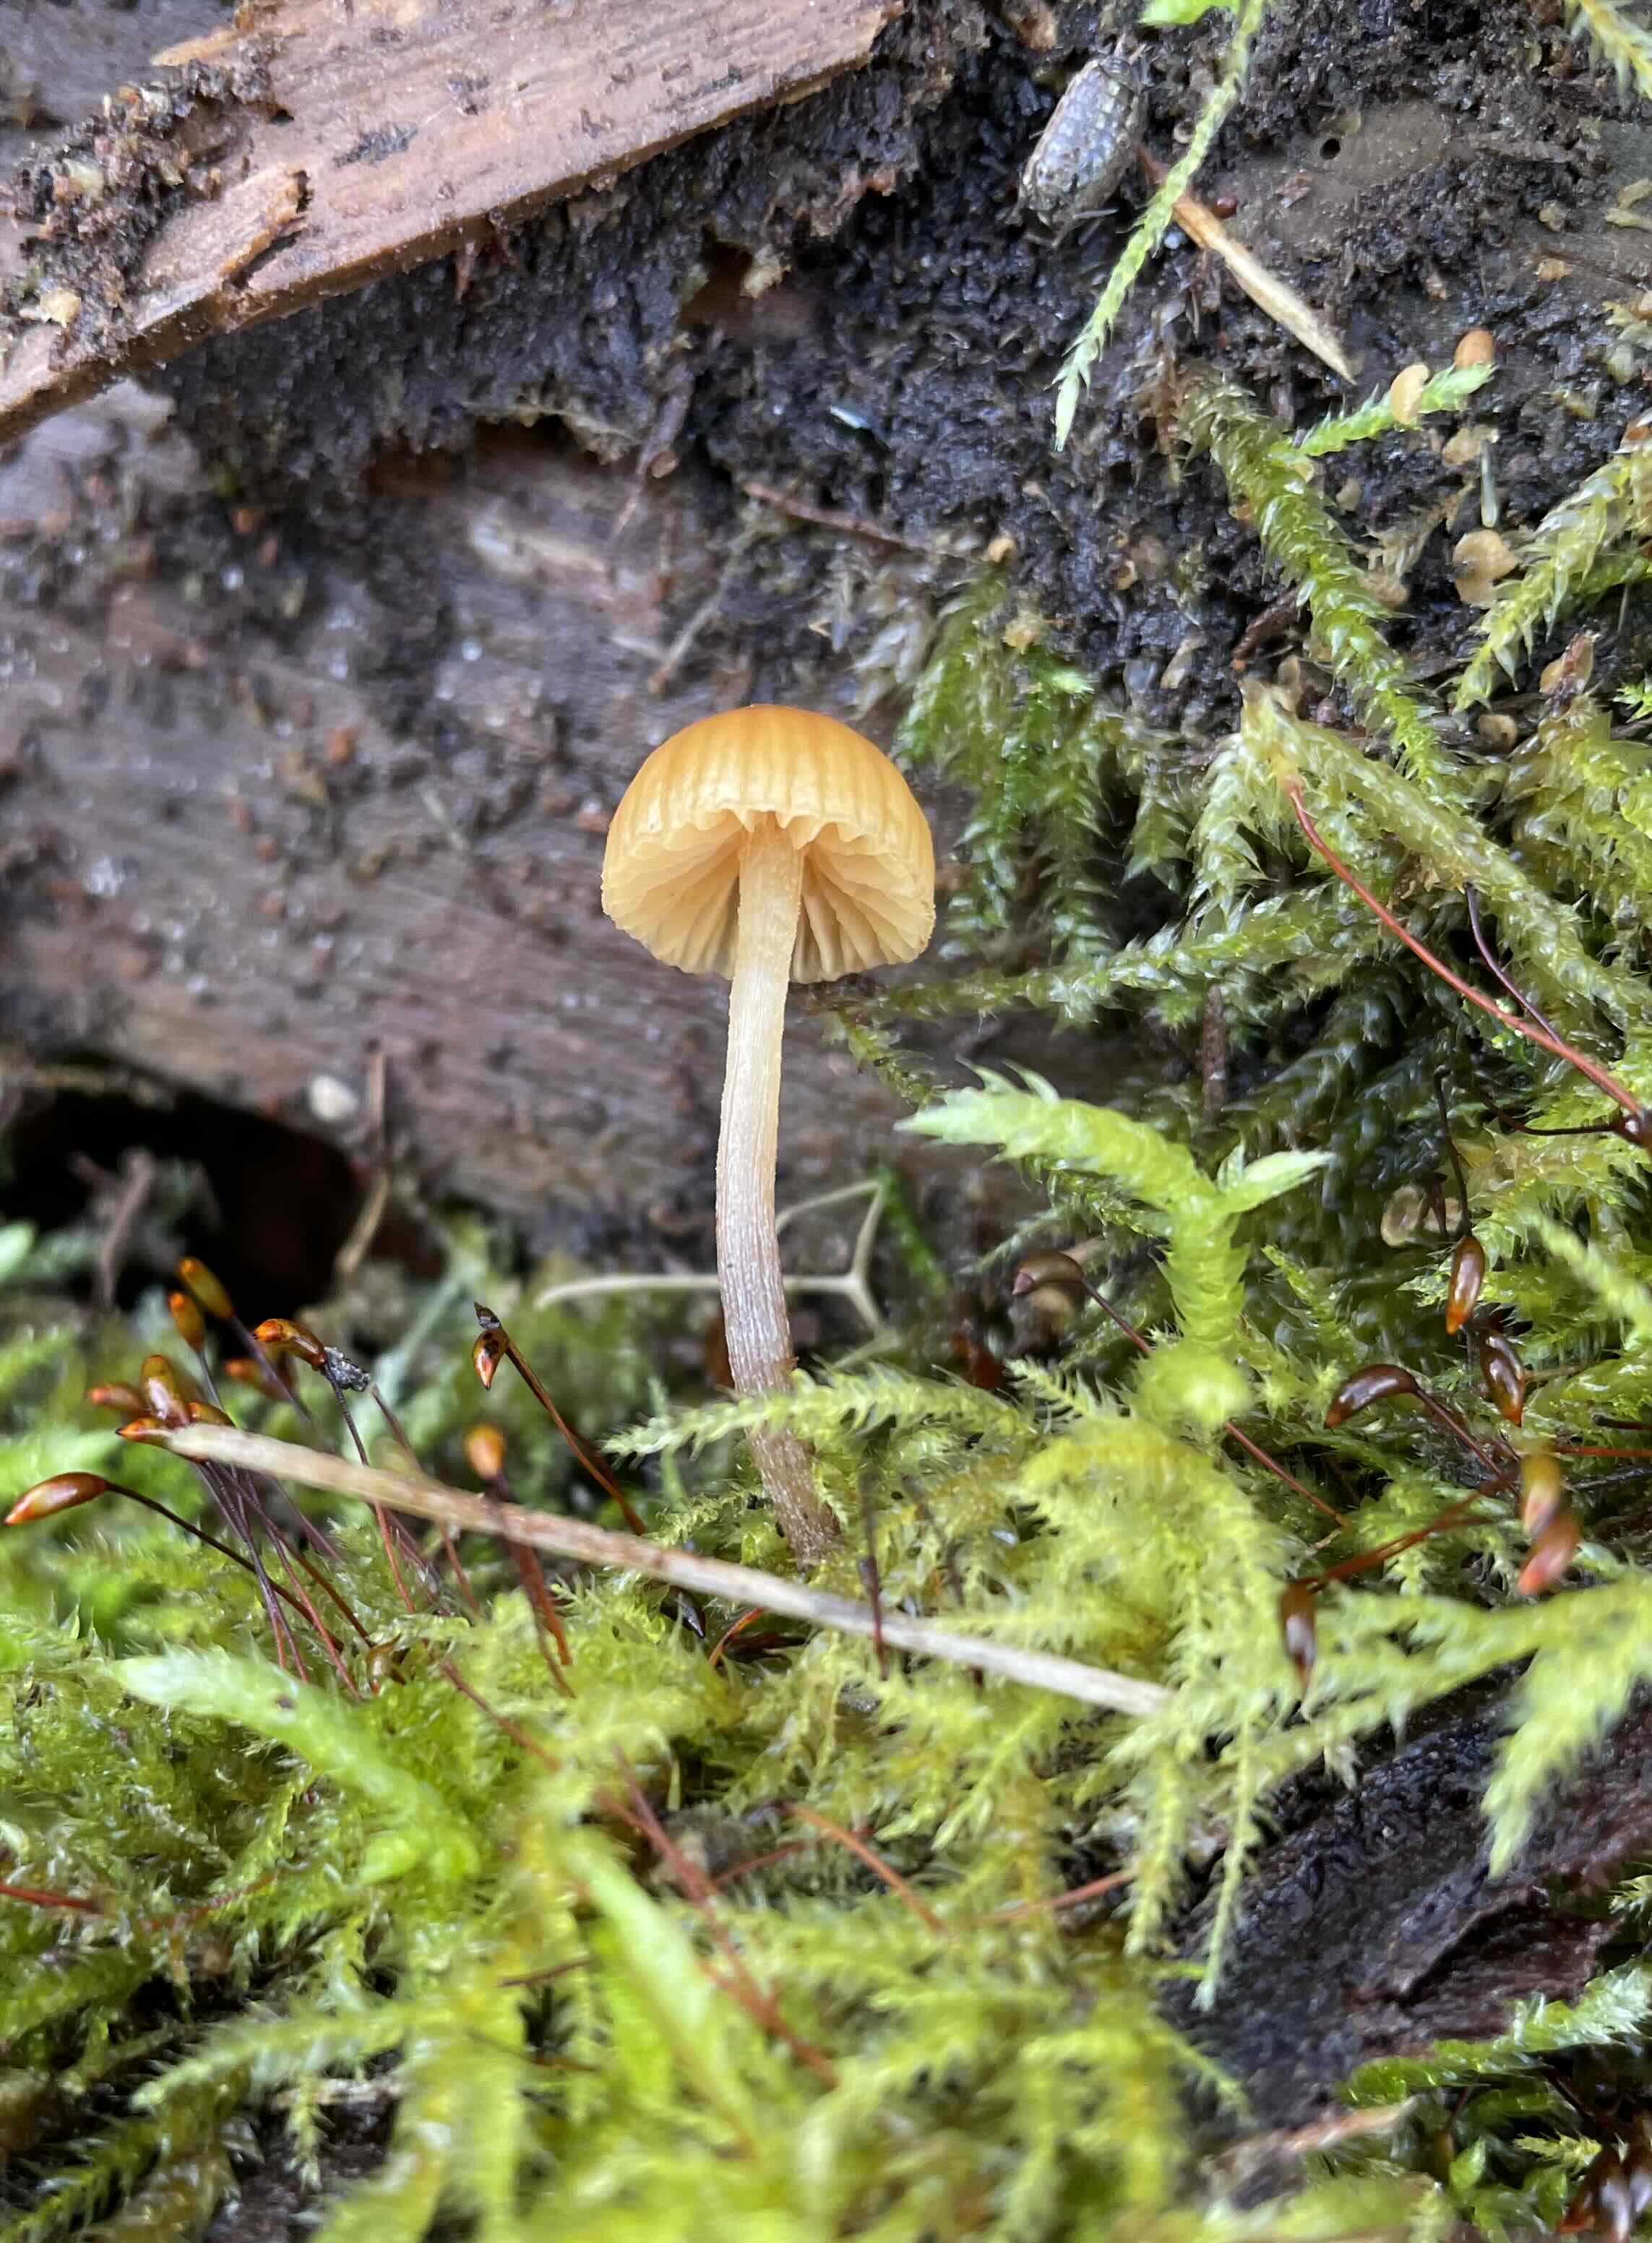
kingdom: Fungi
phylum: Basidiomycota
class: Agaricomycetes
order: Agaricales
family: Hymenogastraceae
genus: Galerina
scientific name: Galerina
